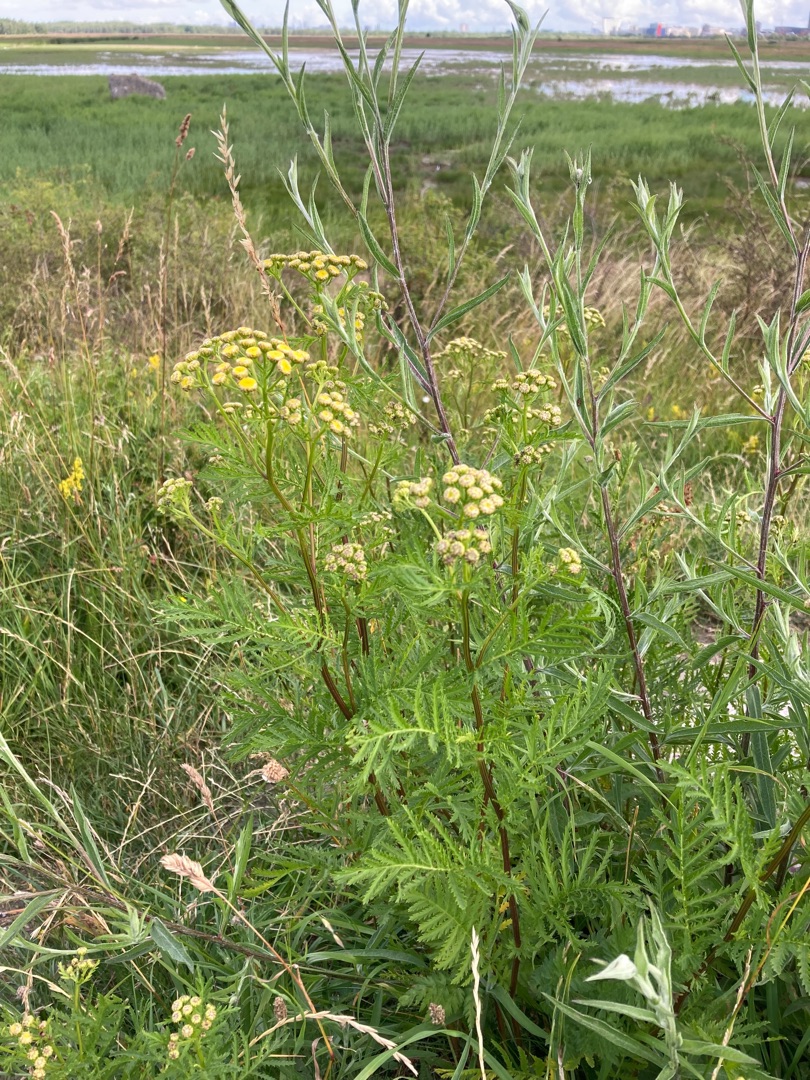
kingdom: Plantae
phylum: Tracheophyta
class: Magnoliopsida
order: Asterales
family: Asteraceae
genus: Tanacetum
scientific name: Tanacetum vulgare
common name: Rejnfan
